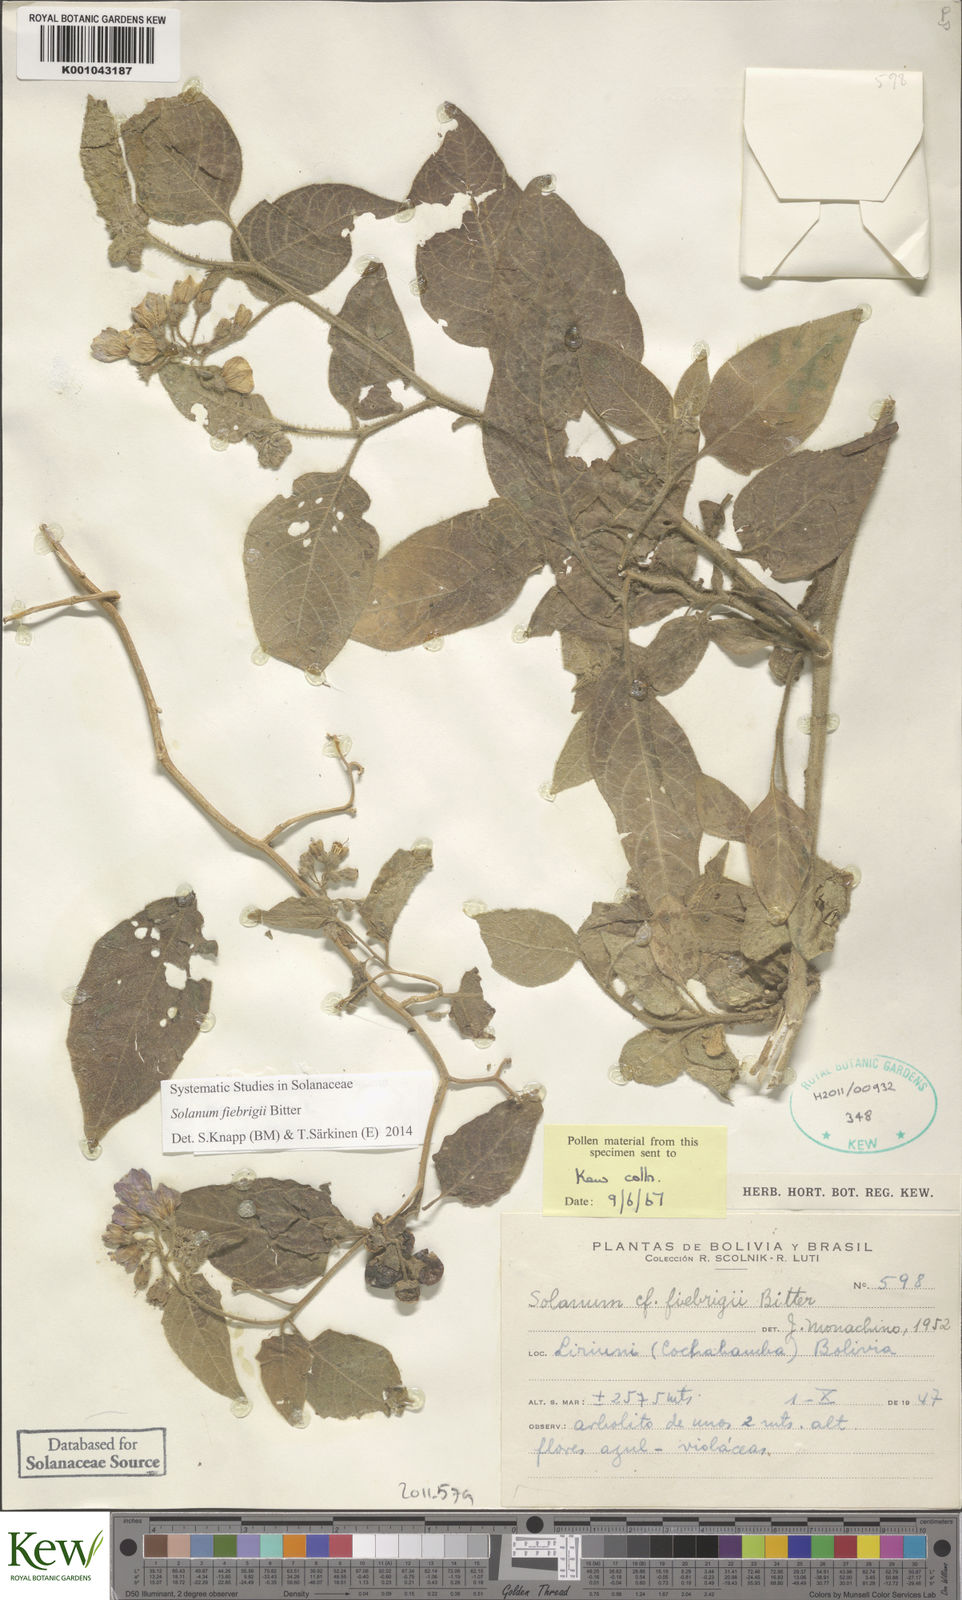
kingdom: Plantae
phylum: Tracheophyta
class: Magnoliopsida
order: Solanales
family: Solanaceae
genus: Solanum
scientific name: Solanum fiebrigii
